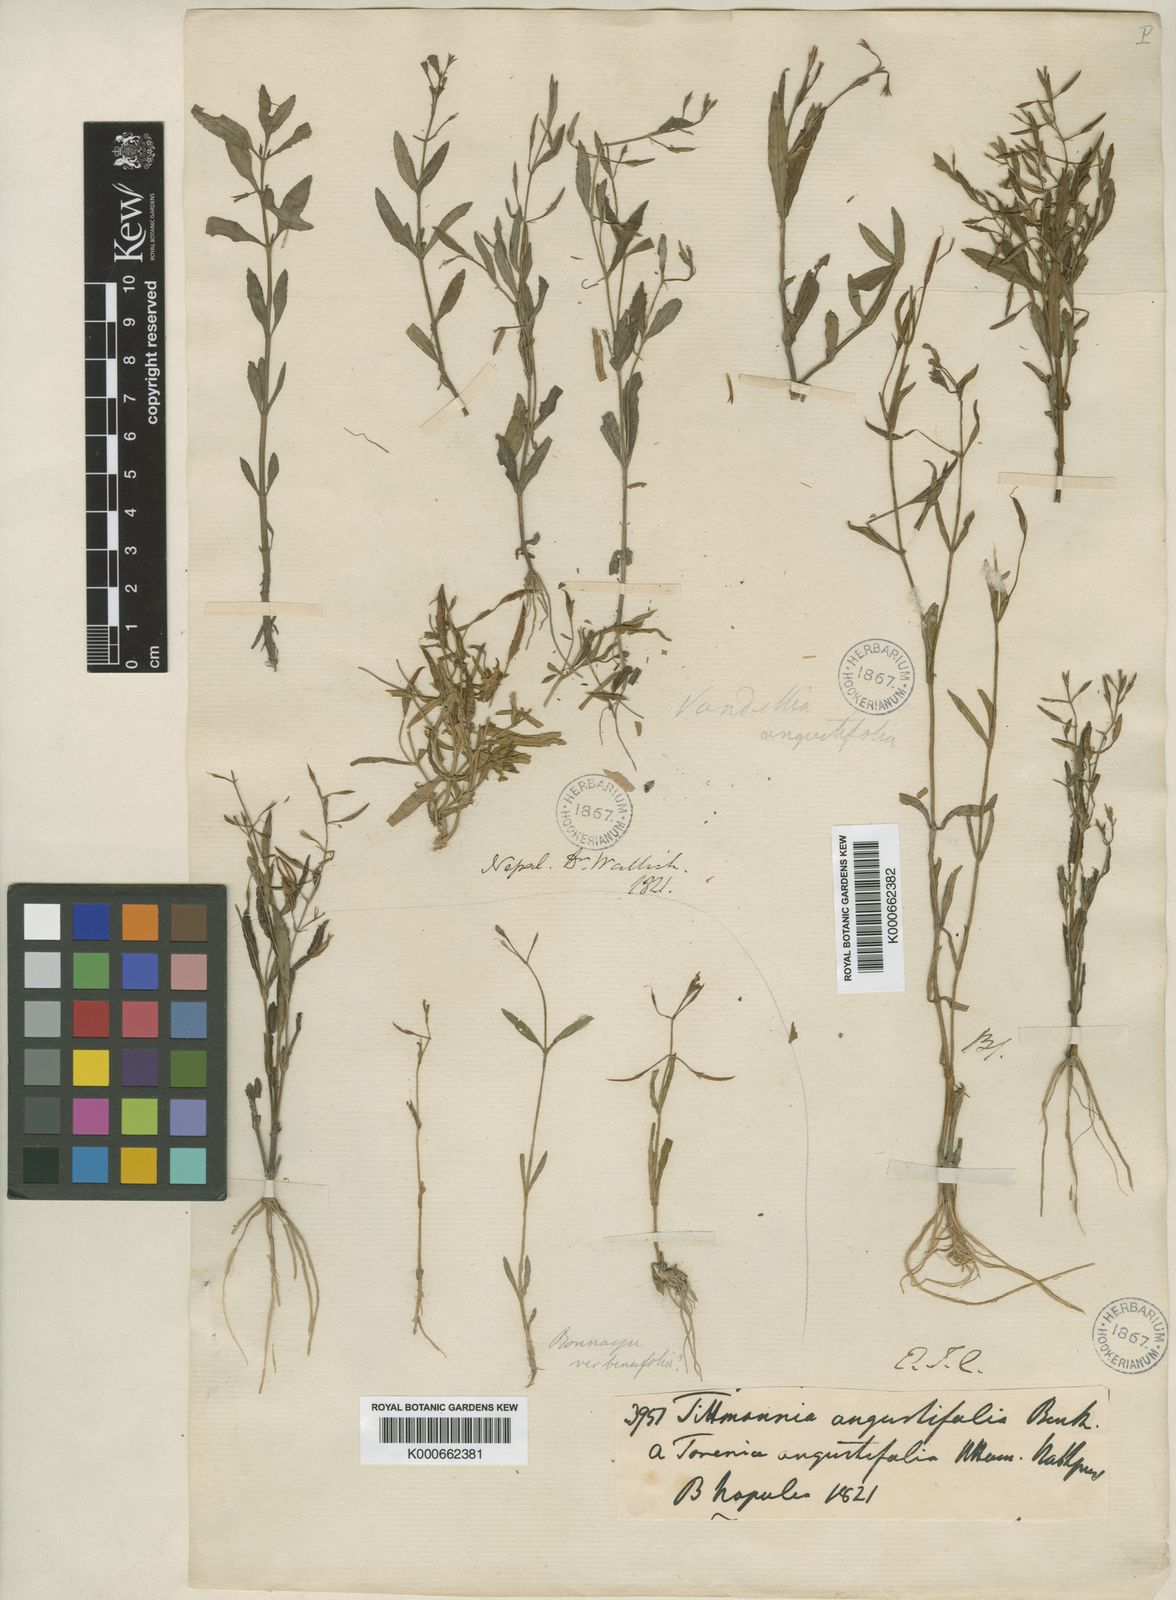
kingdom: Plantae
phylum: Tracheophyta
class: Magnoliopsida
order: Lamiales
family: Linderniaceae
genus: Torenia
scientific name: Torenia
